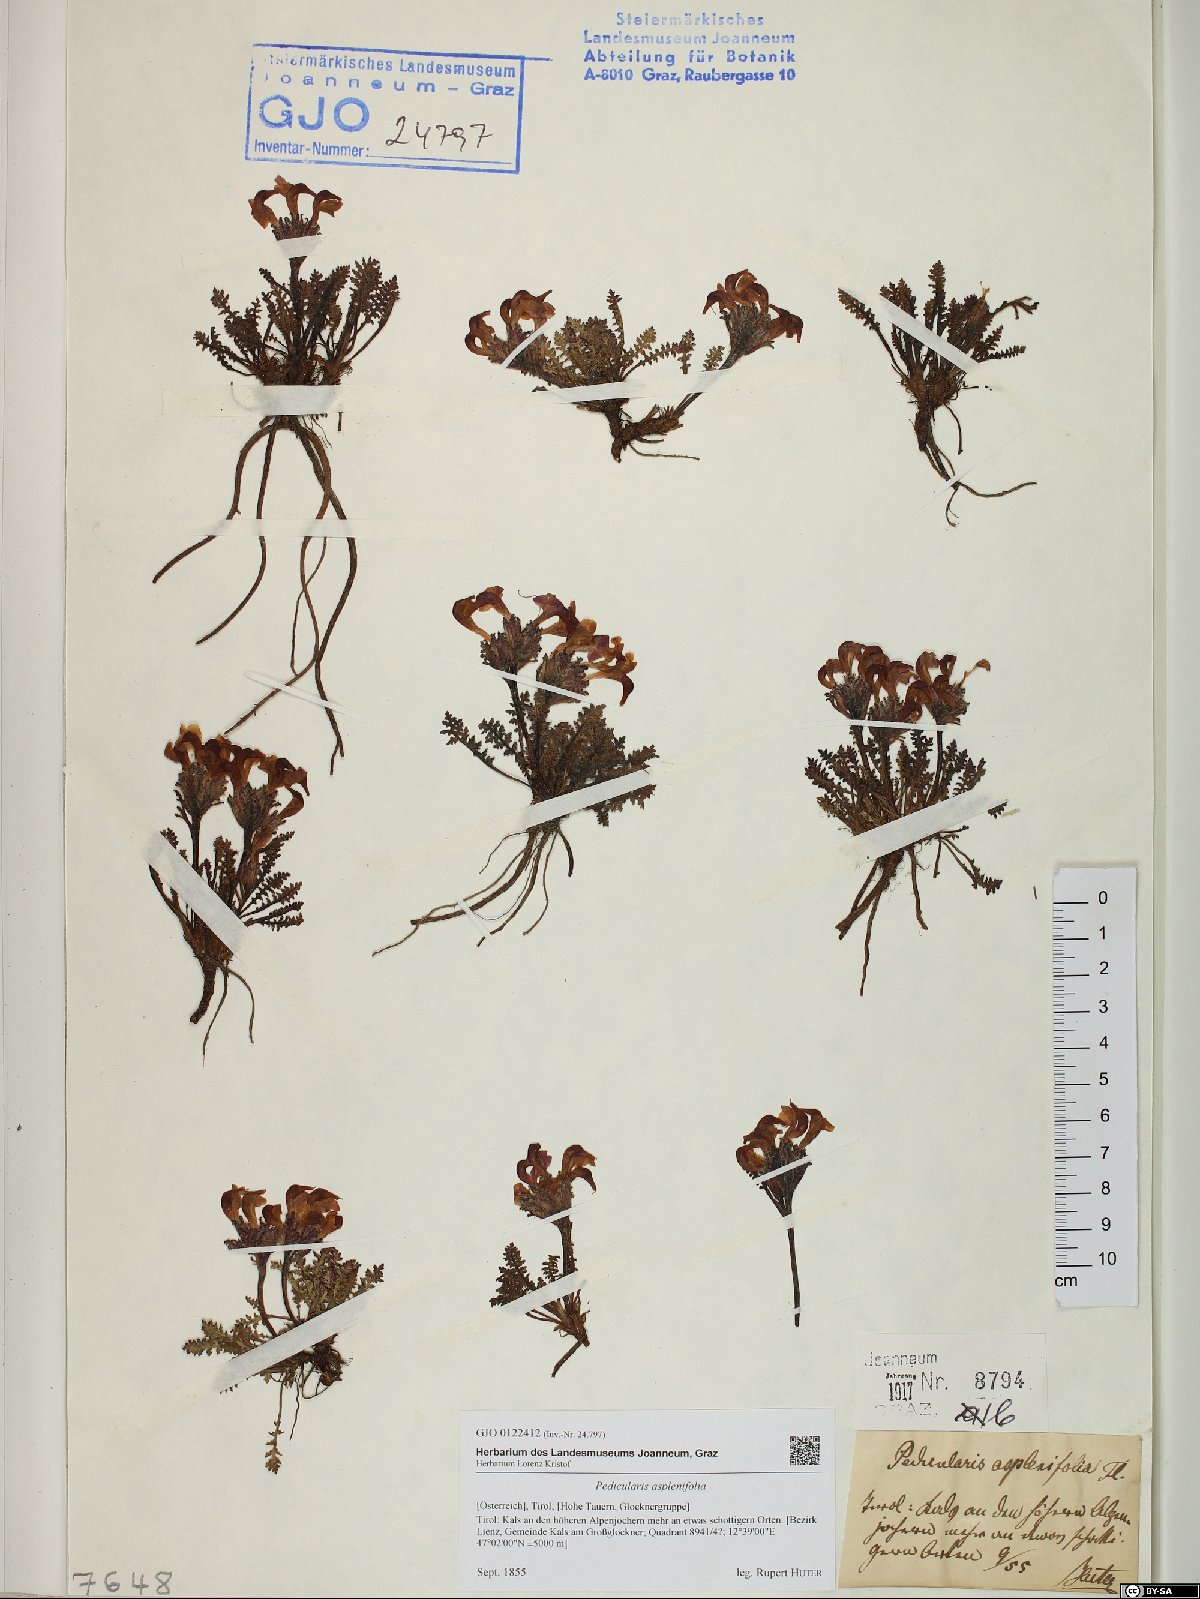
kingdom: Plantae
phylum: Tracheophyta
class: Magnoliopsida
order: Lamiales
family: Orobanchaceae
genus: Pedicularis
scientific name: Pedicularis asplenifolia
